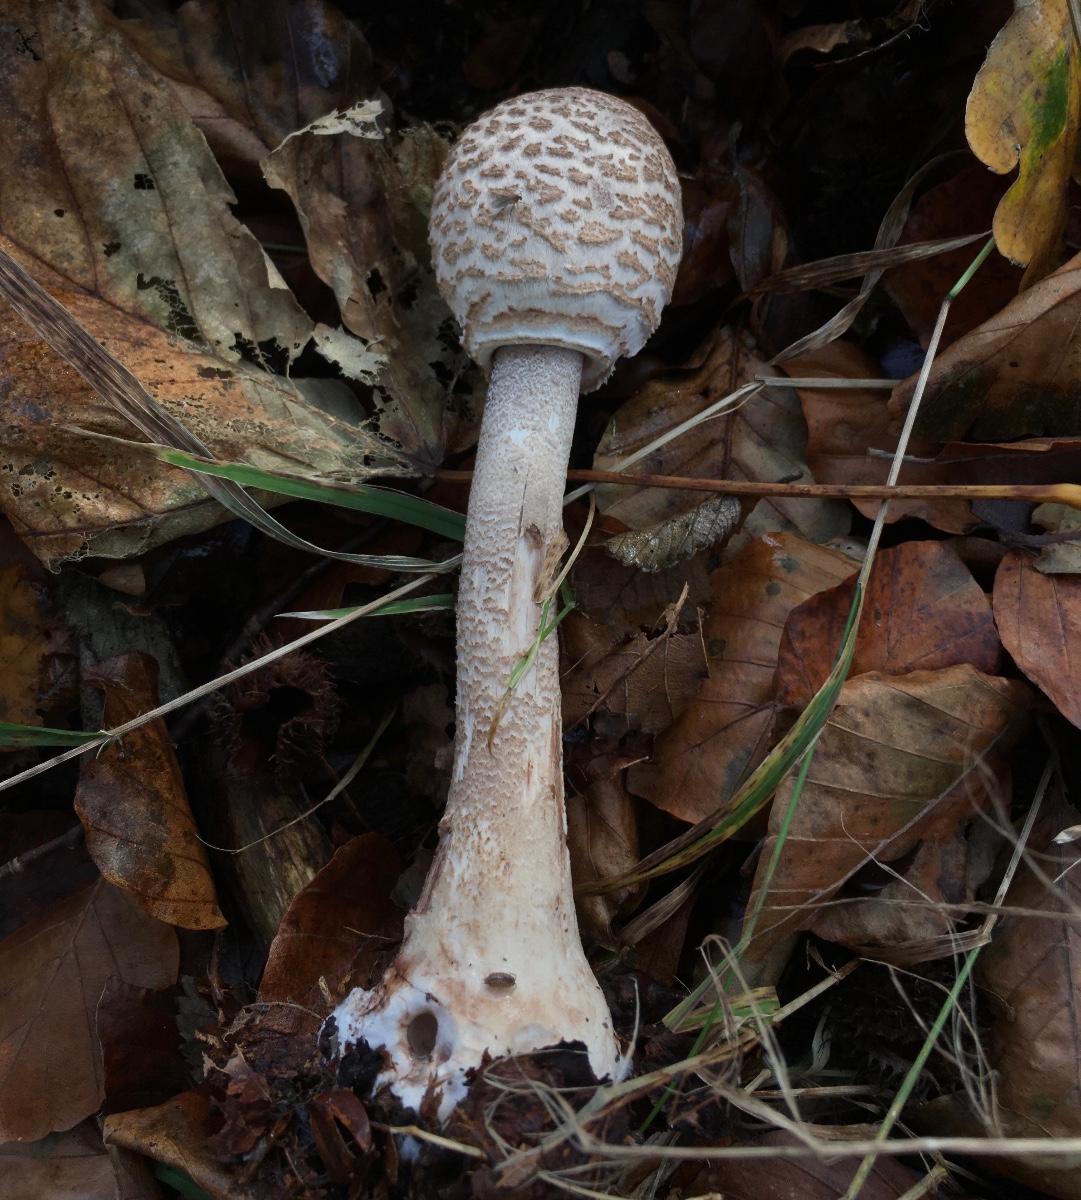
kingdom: Fungi
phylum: Basidiomycota
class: Agaricomycetes
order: Agaricales
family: Agaricaceae
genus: Macrolepiota
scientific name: Macrolepiota procera
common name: stor kæmpeparasolhat
